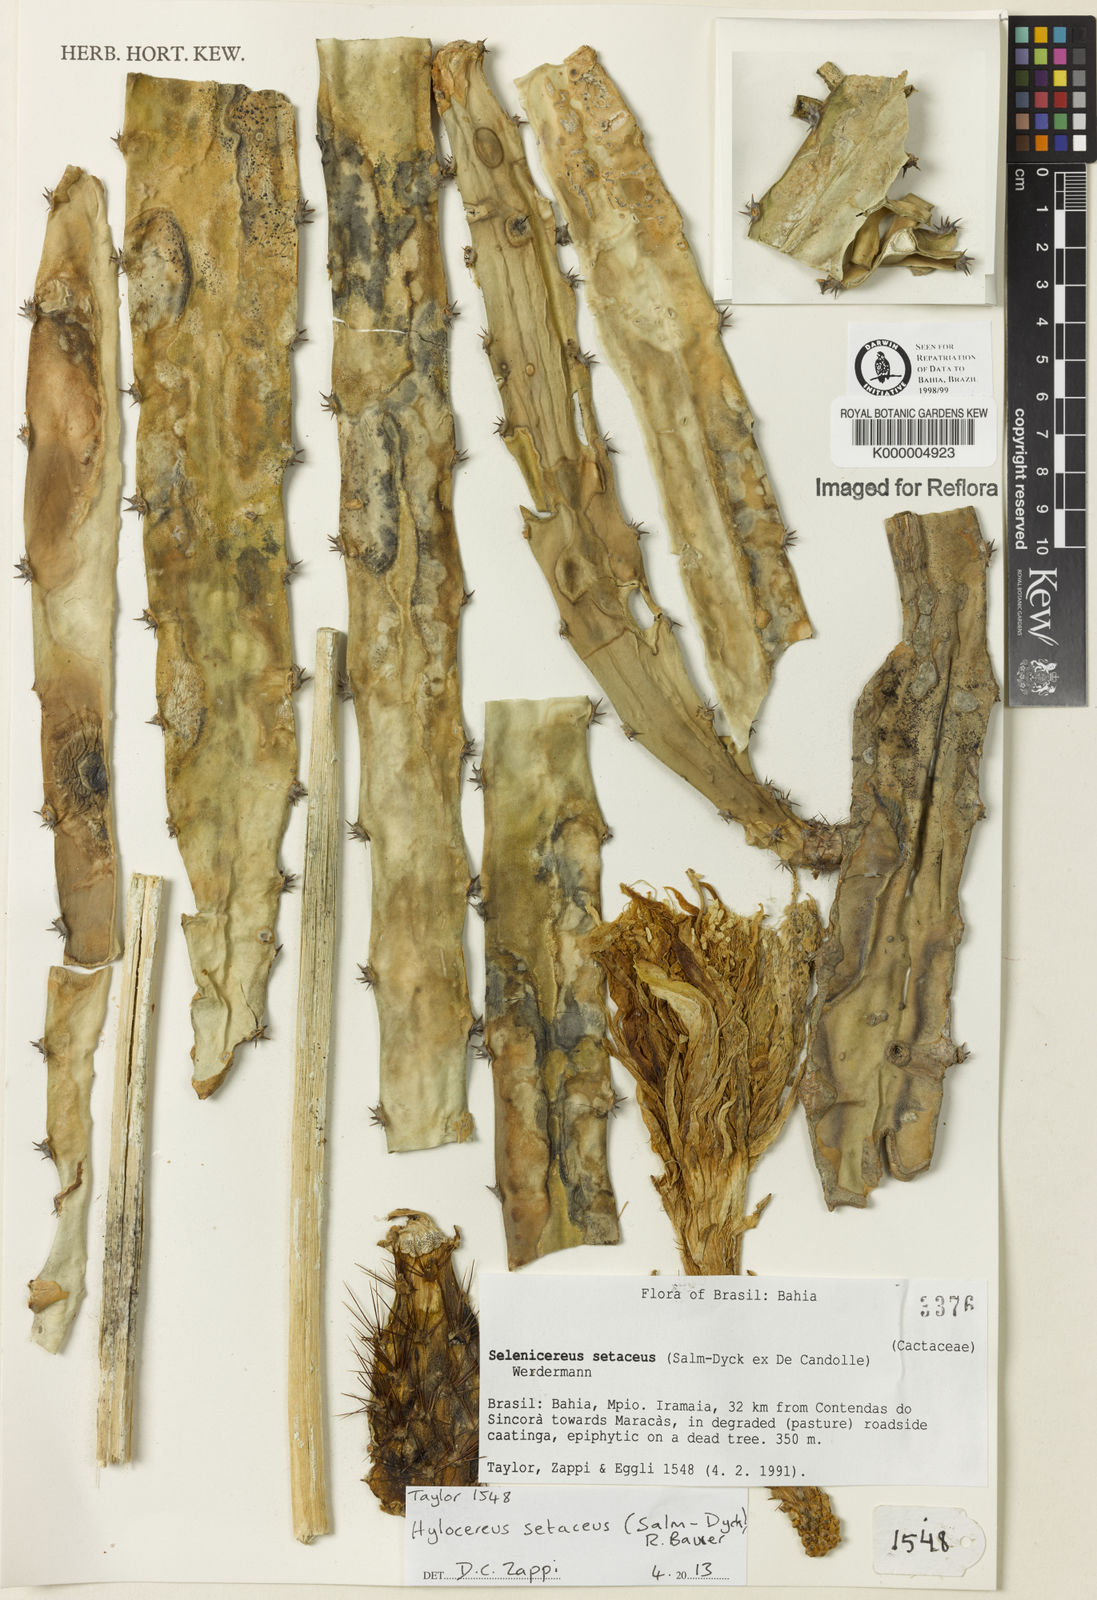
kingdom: Plantae
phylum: Tracheophyta
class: Magnoliopsida
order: Caryophyllales
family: Cactaceae
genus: Selenicereus
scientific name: Selenicereus setaceus
